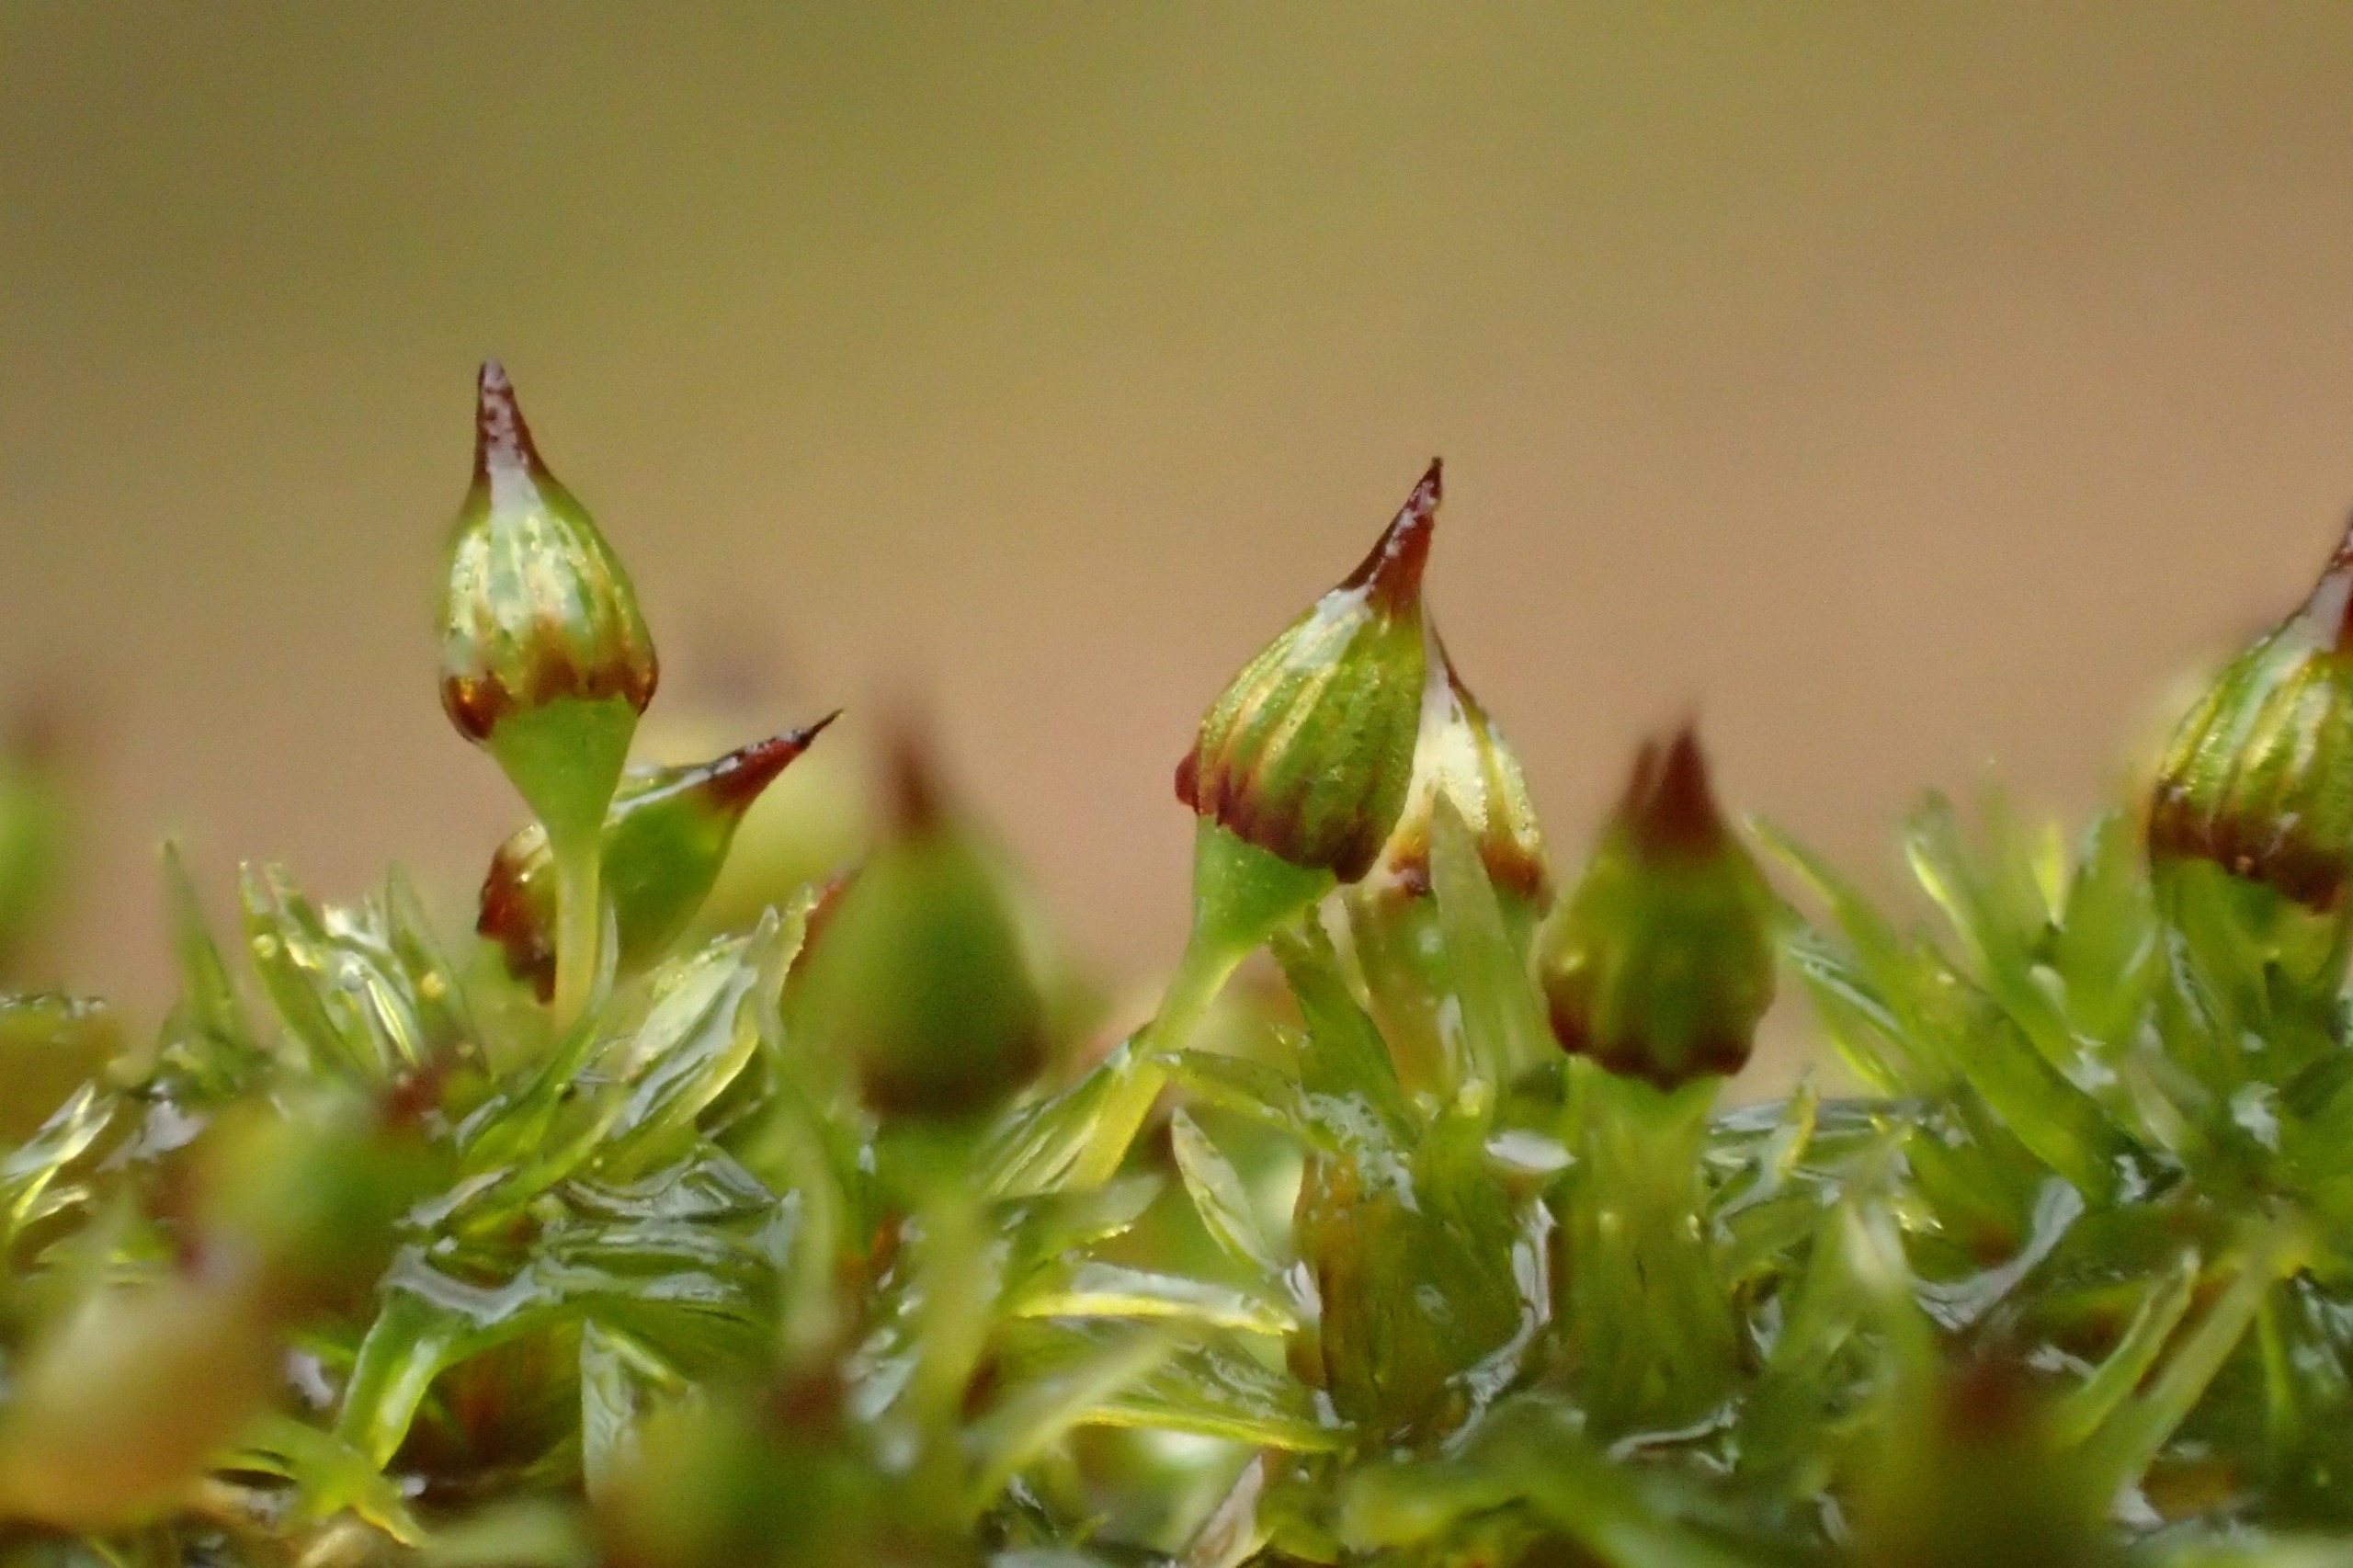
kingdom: Plantae
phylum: Bryophyta
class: Bryopsida
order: Orthotrichales
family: Orthotrichaceae
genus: Orthotrichum
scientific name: Orthotrichum pulchellum
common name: Smuk furehætte
